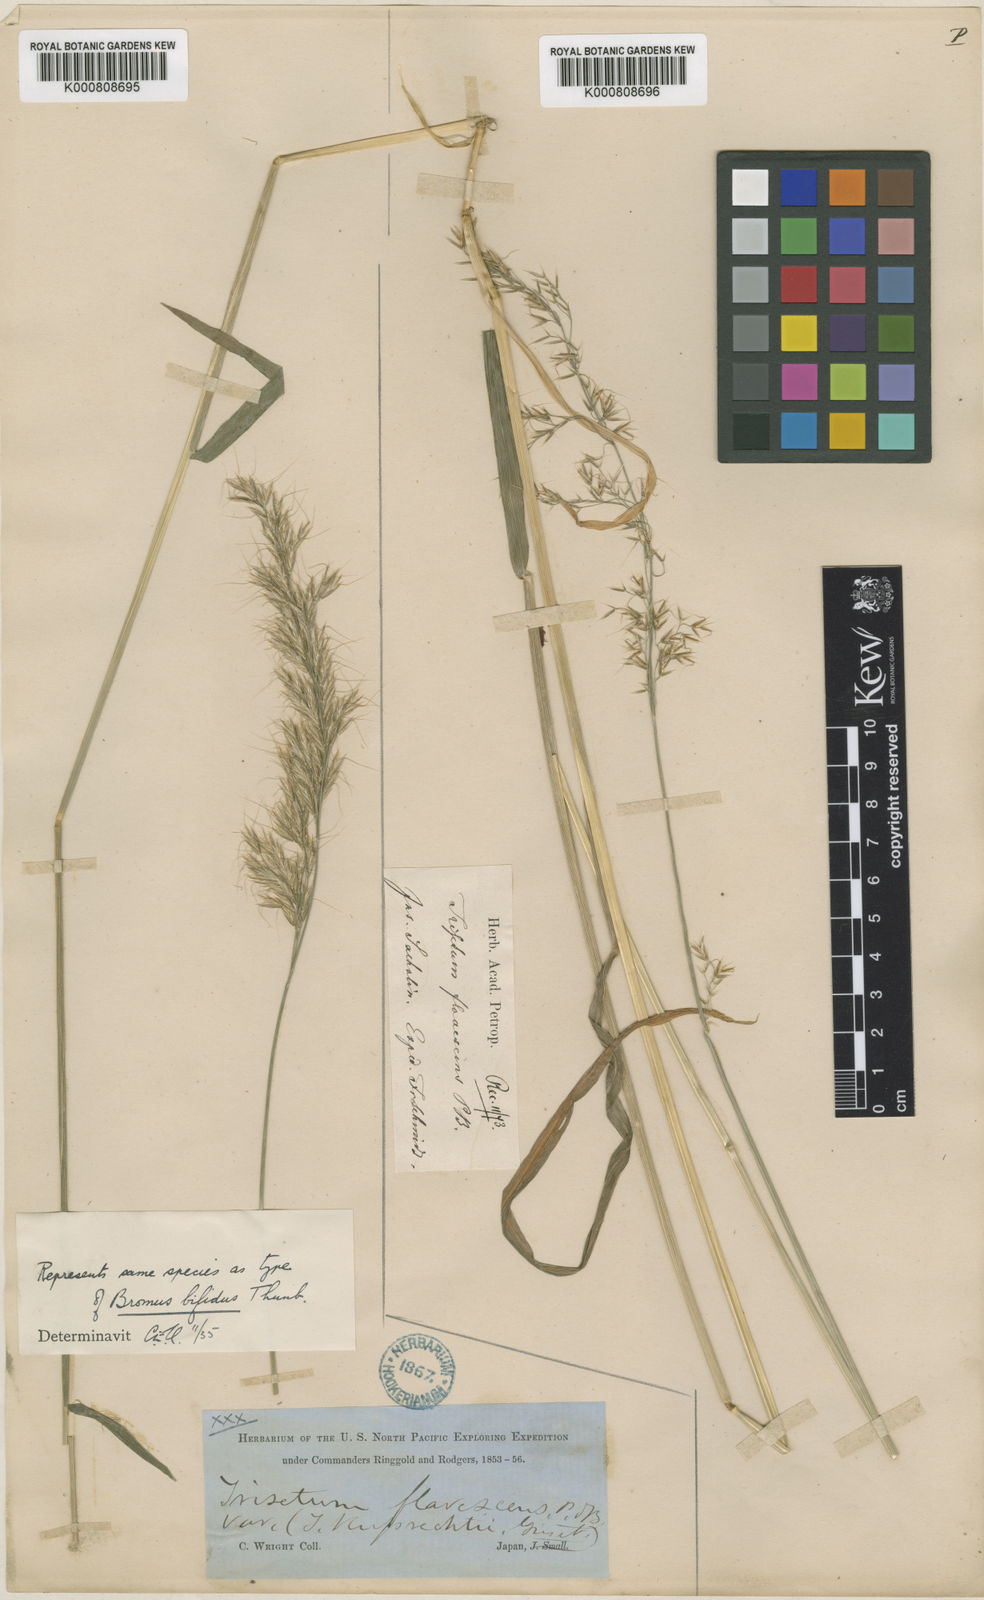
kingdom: Plantae
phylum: Tracheophyta
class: Liliopsida
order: Poales
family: Poaceae
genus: Sibirotrisetum
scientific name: Sibirotrisetum bifidum
